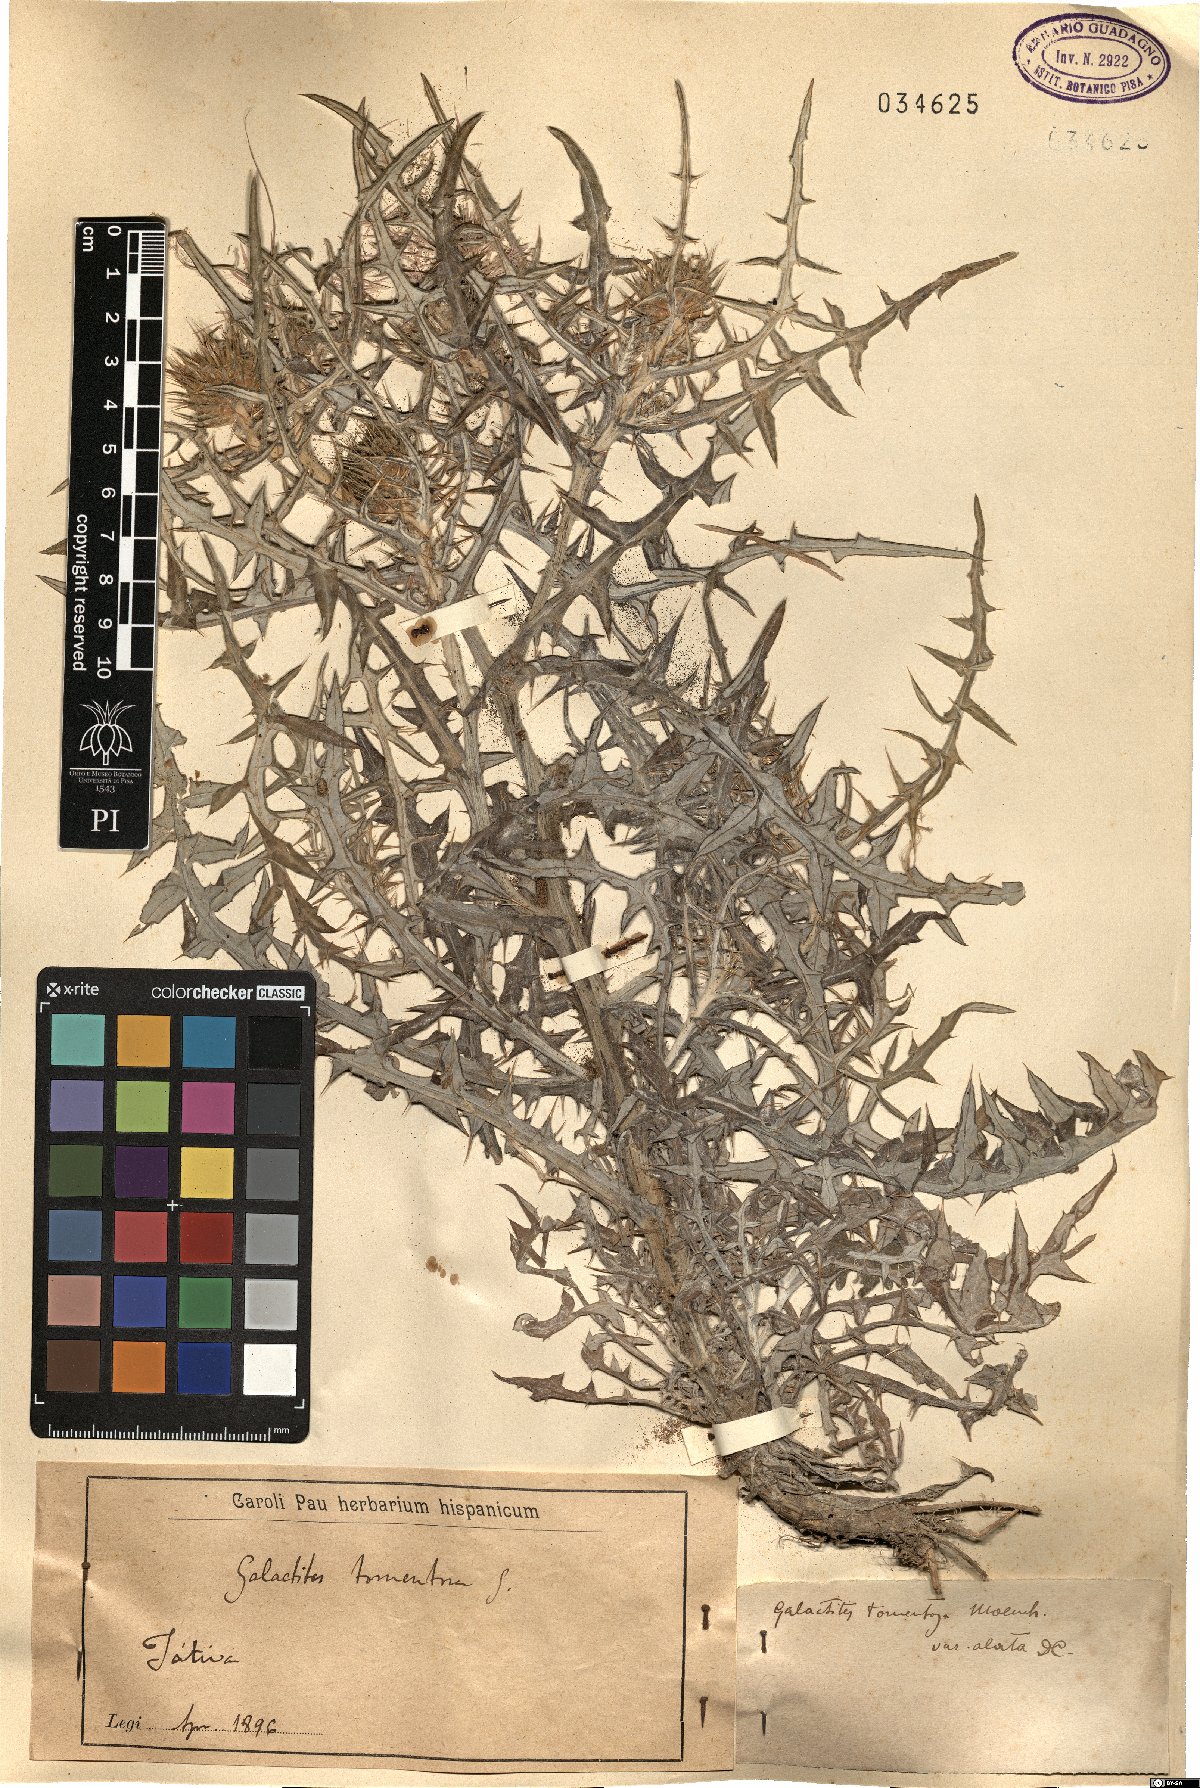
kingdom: Plantae
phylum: Tracheophyta
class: Magnoliopsida
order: Asterales
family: Asteraceae
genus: Galactites
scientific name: Galactites tomentosa
